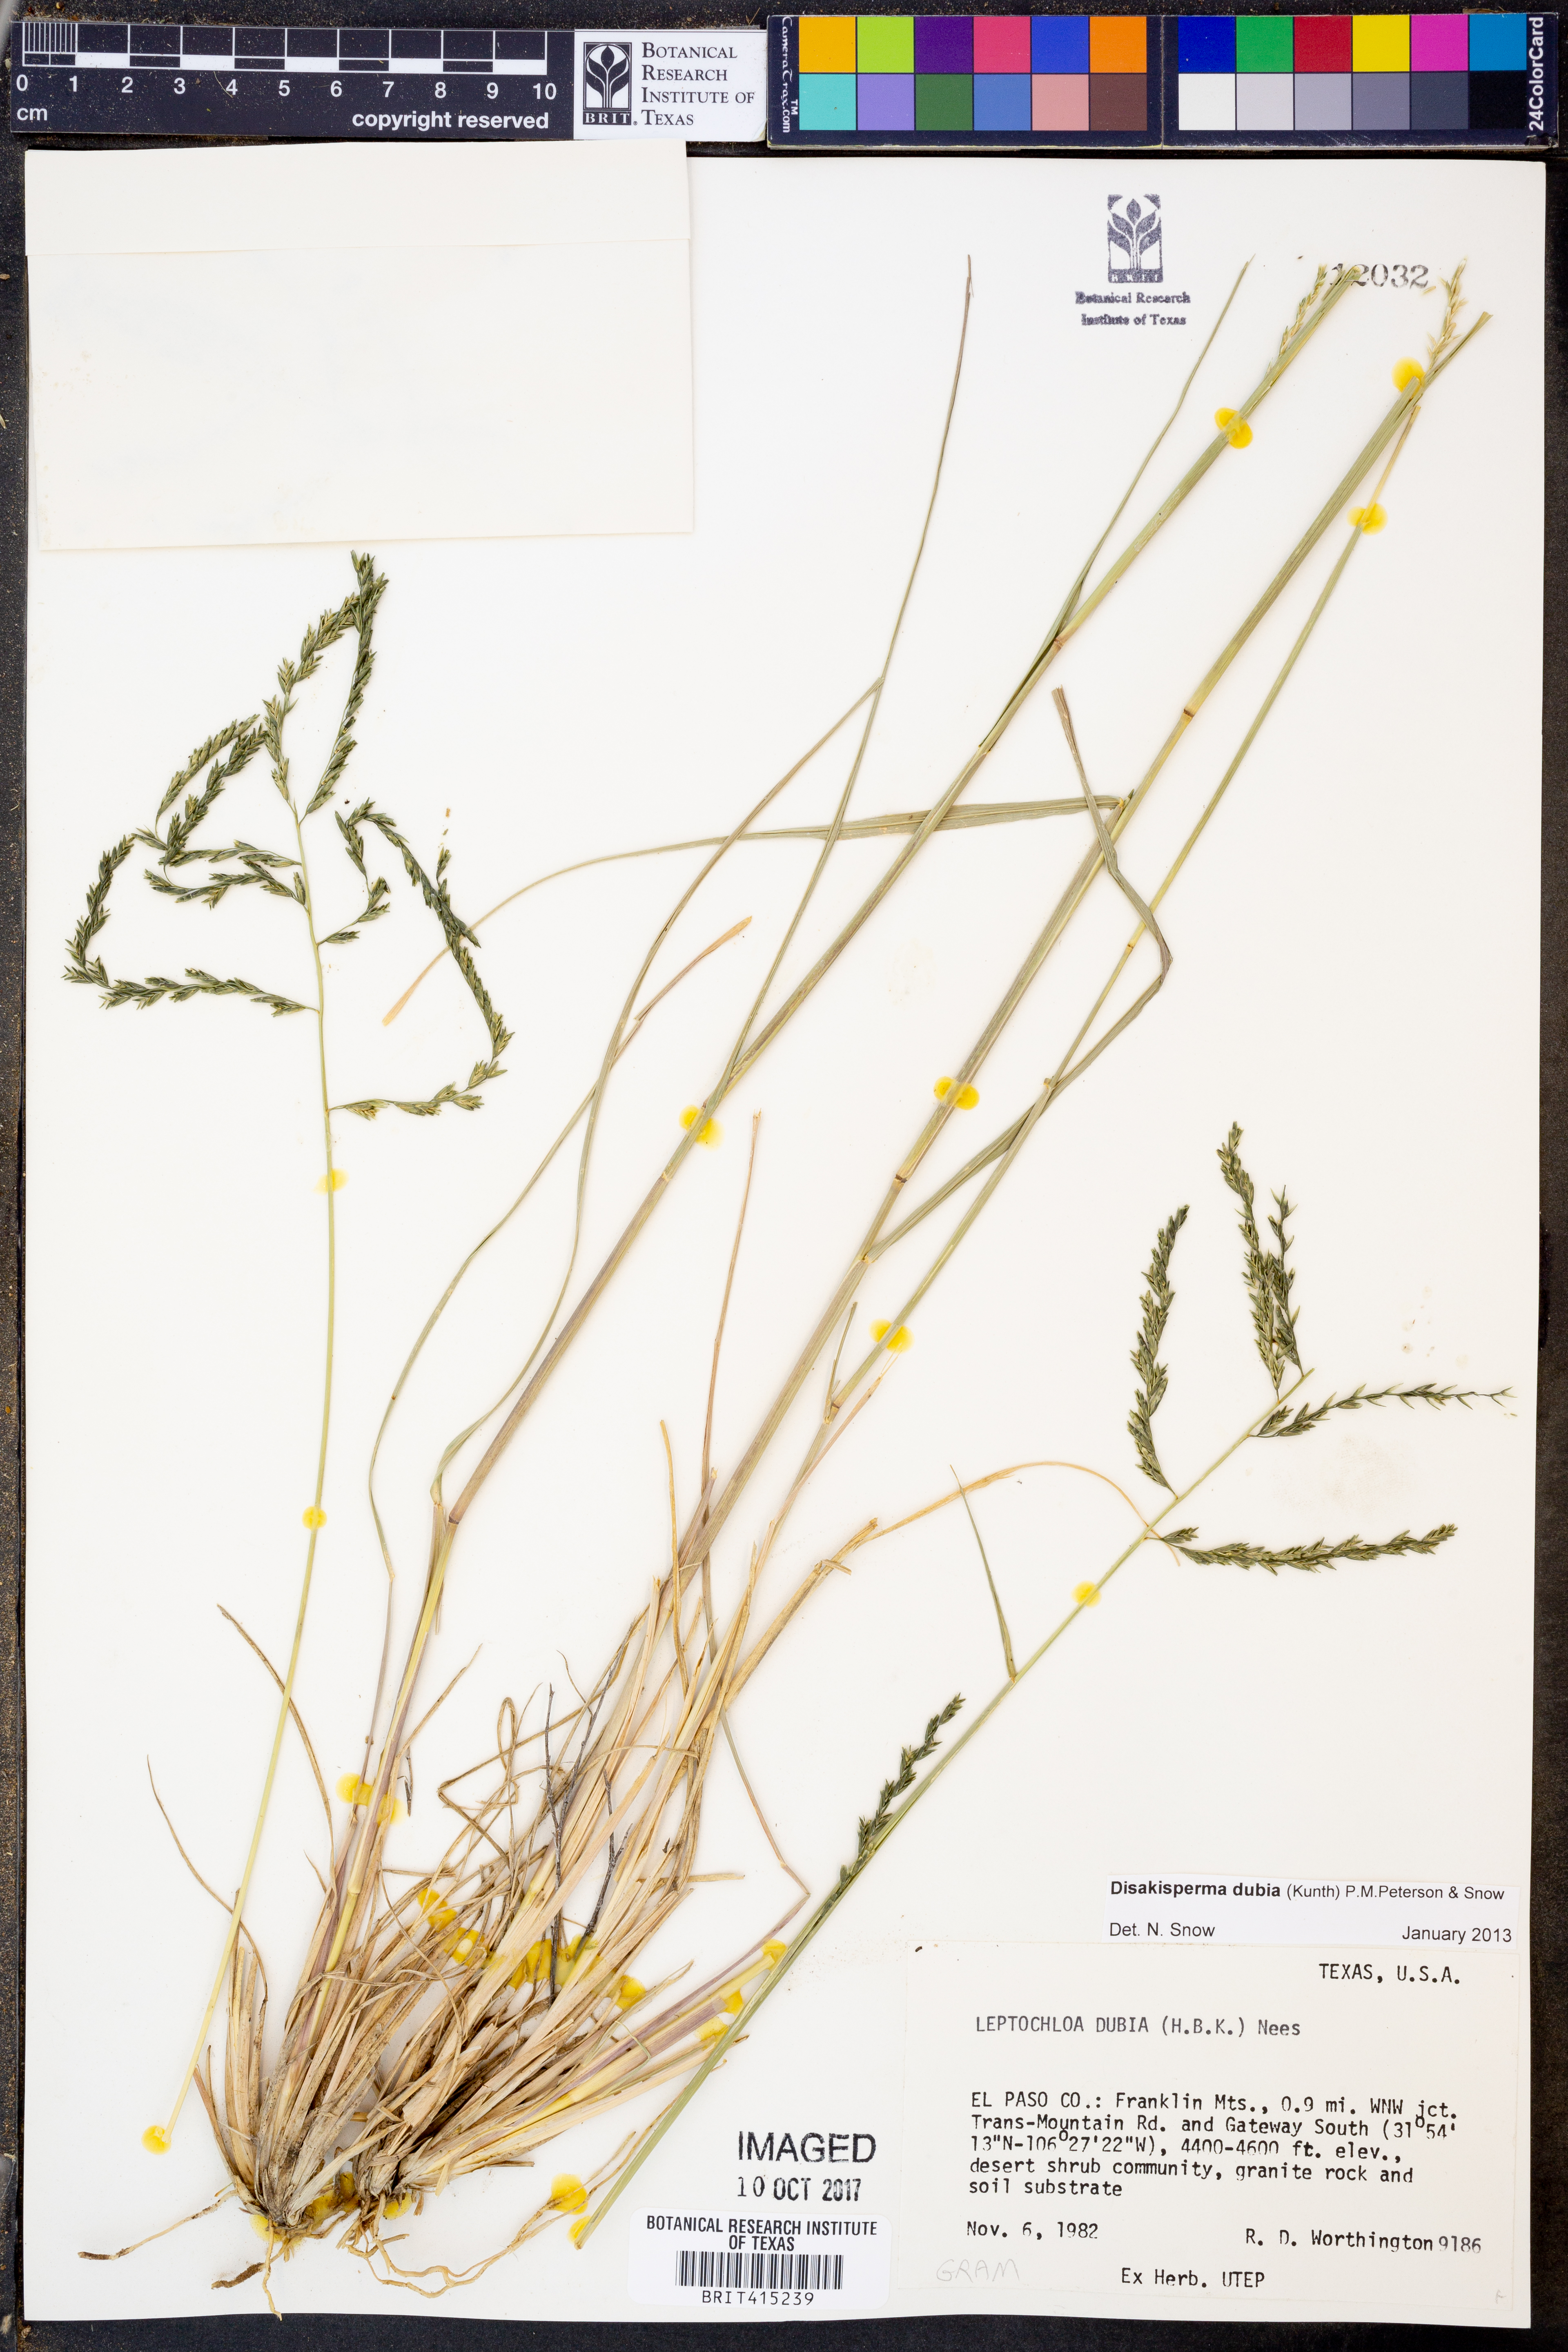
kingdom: Plantae
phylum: Tracheophyta
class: Liliopsida
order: Poales
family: Poaceae
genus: Disakisperma
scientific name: Disakisperma dubium
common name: Green sprangletop
